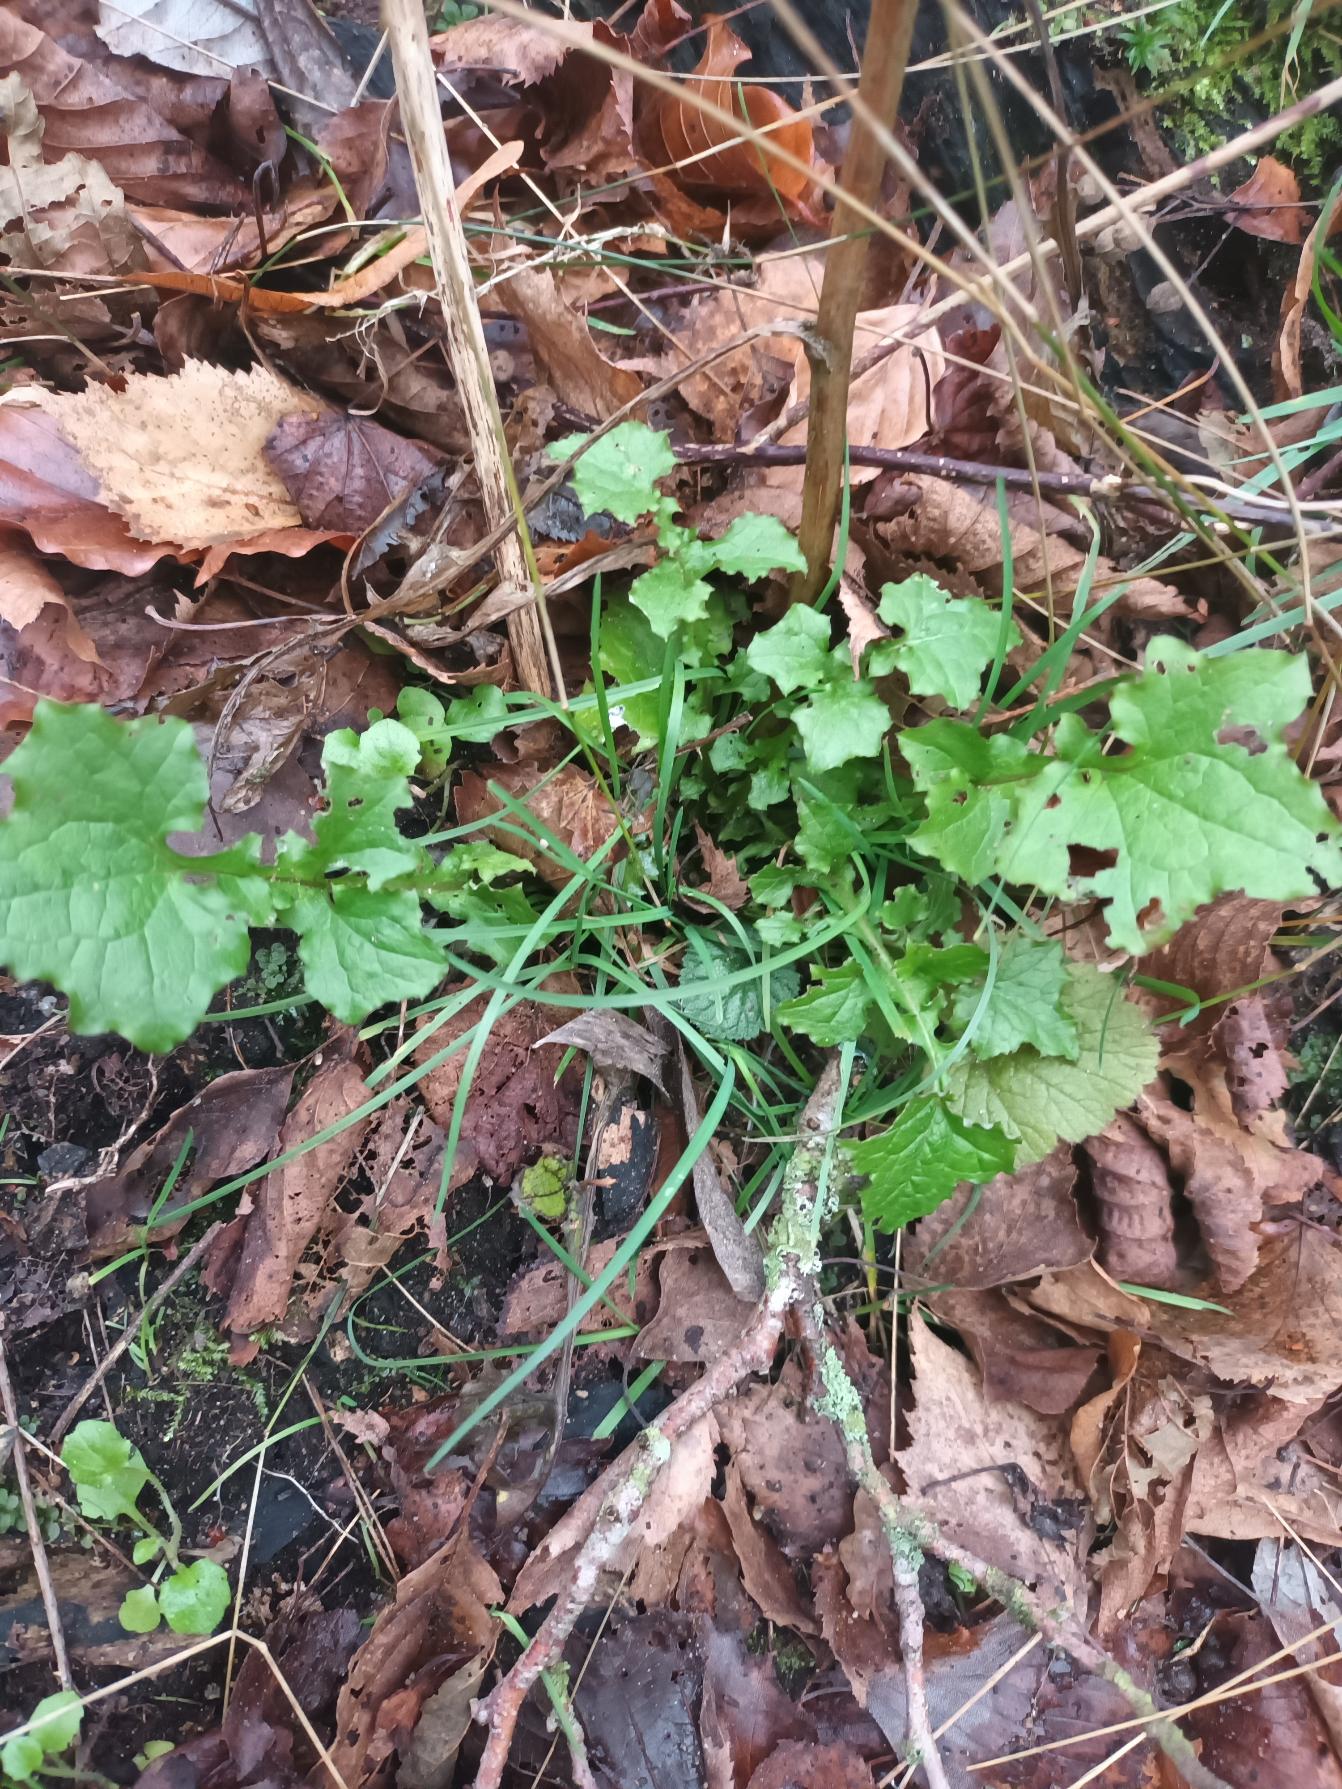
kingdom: Plantae
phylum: Tracheophyta
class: Magnoliopsida
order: Asterales
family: Asteraceae
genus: Mycelis
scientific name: Mycelis muralis
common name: Skov-salat
